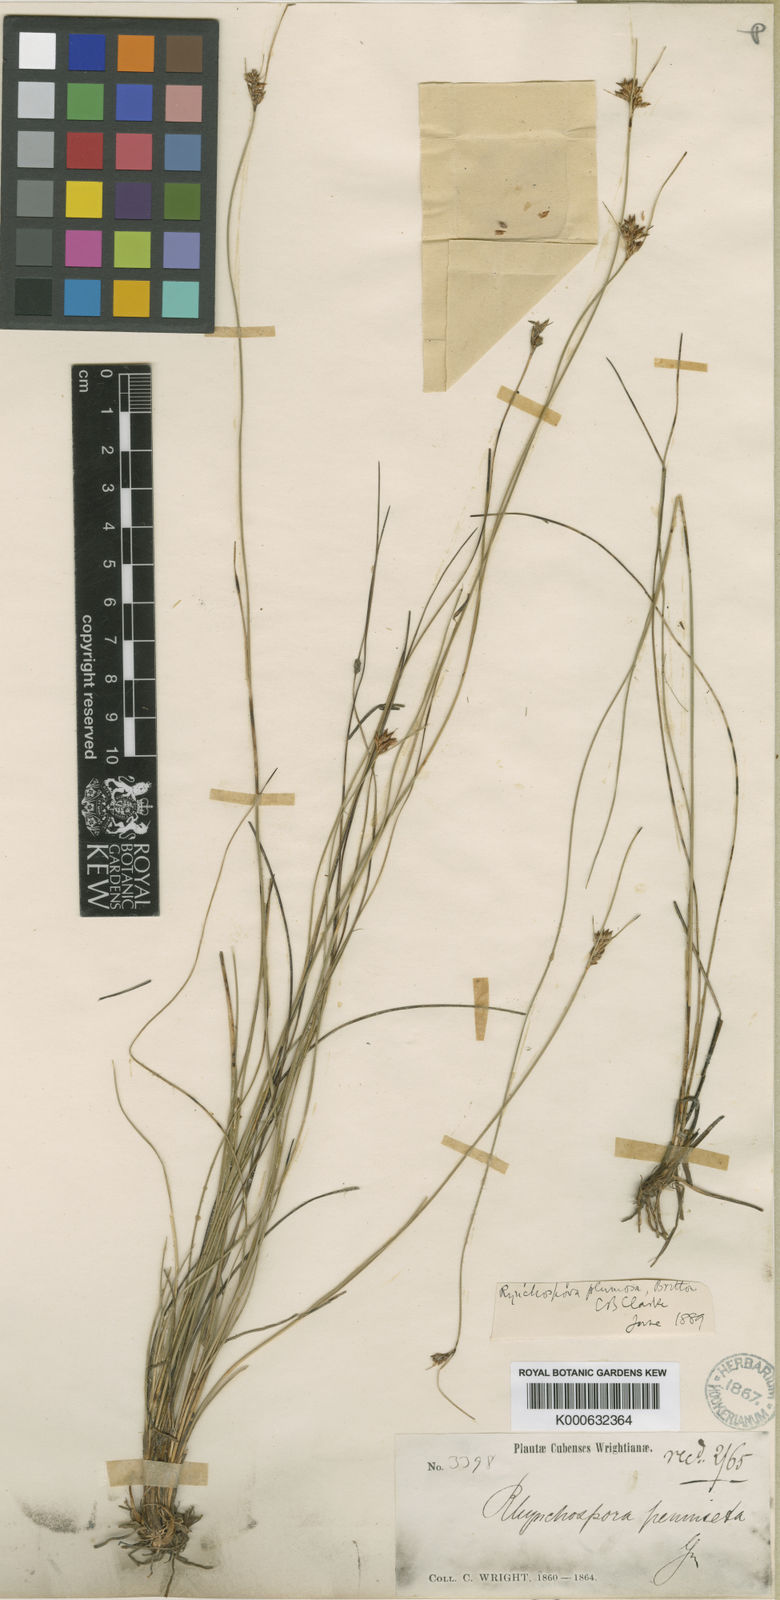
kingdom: Plantae
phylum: Tracheophyta
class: Liliopsida
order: Poales
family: Cyperaceae
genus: Rhynchospora
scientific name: Rhynchospora
